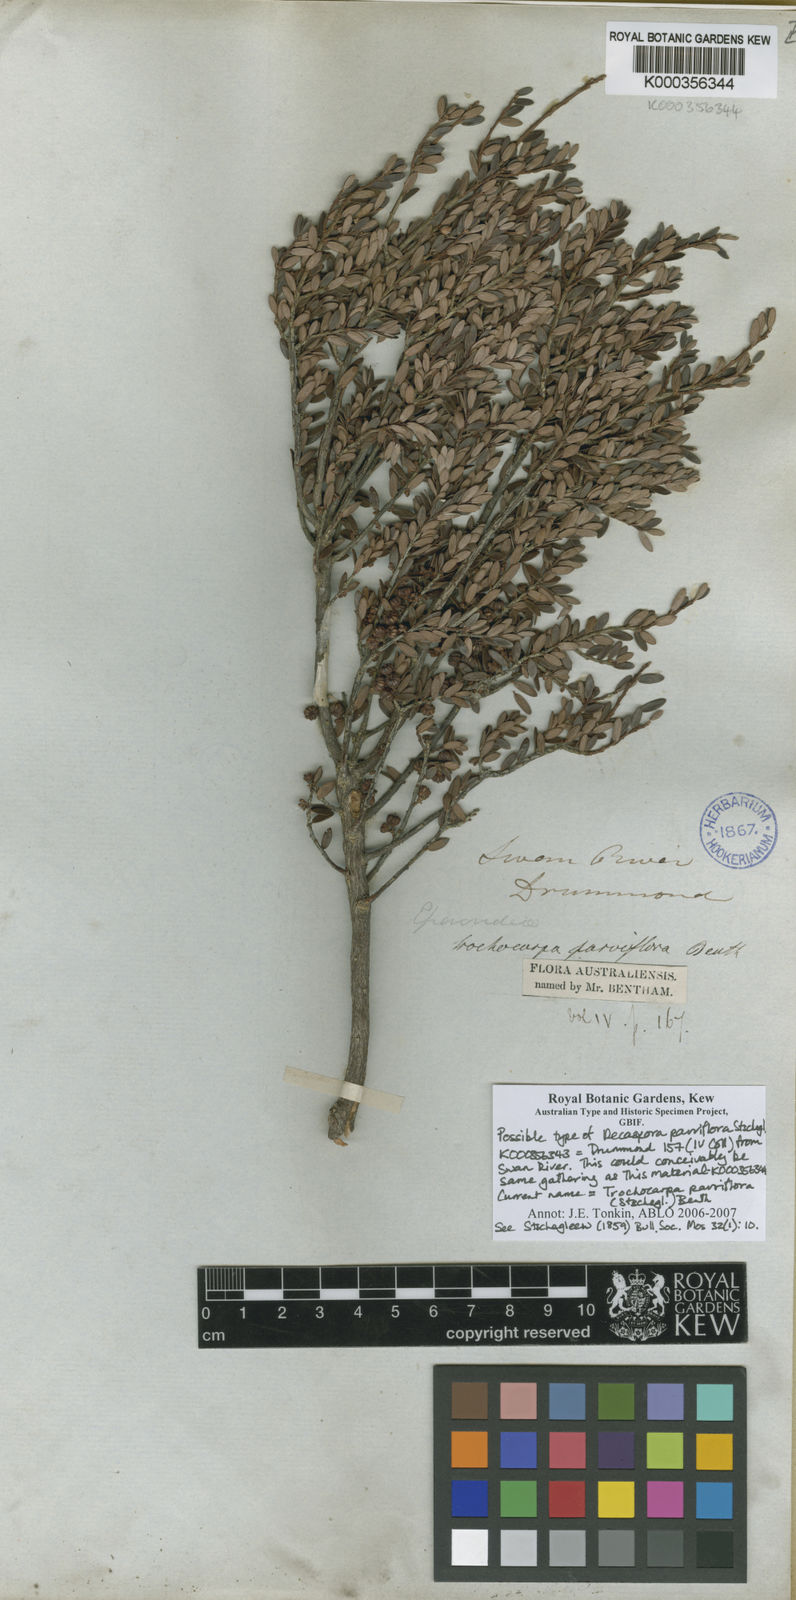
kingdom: Plantae
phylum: Tracheophyta
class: Magnoliopsida
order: Ericales
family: Ericaceae
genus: Acrotriche
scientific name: Acrotriche parviflora
